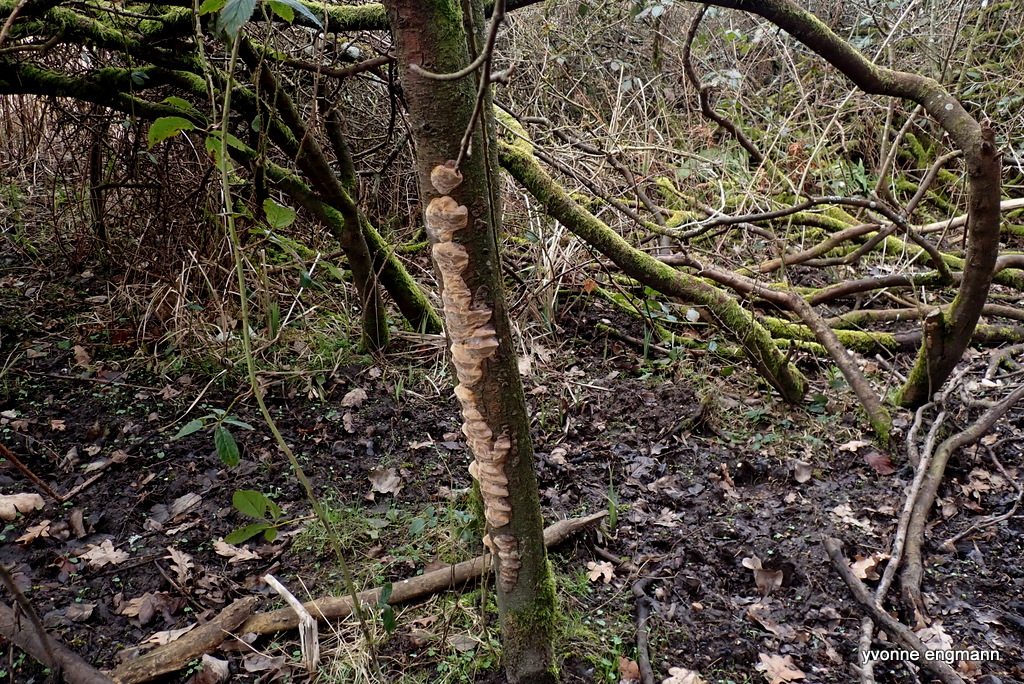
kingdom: Fungi
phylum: Basidiomycota
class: Agaricomycetes
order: Hymenochaetales
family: Hymenochaetaceae
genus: Phellinus
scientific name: Phellinus pomaceus
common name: blomme-ildporesvamp
